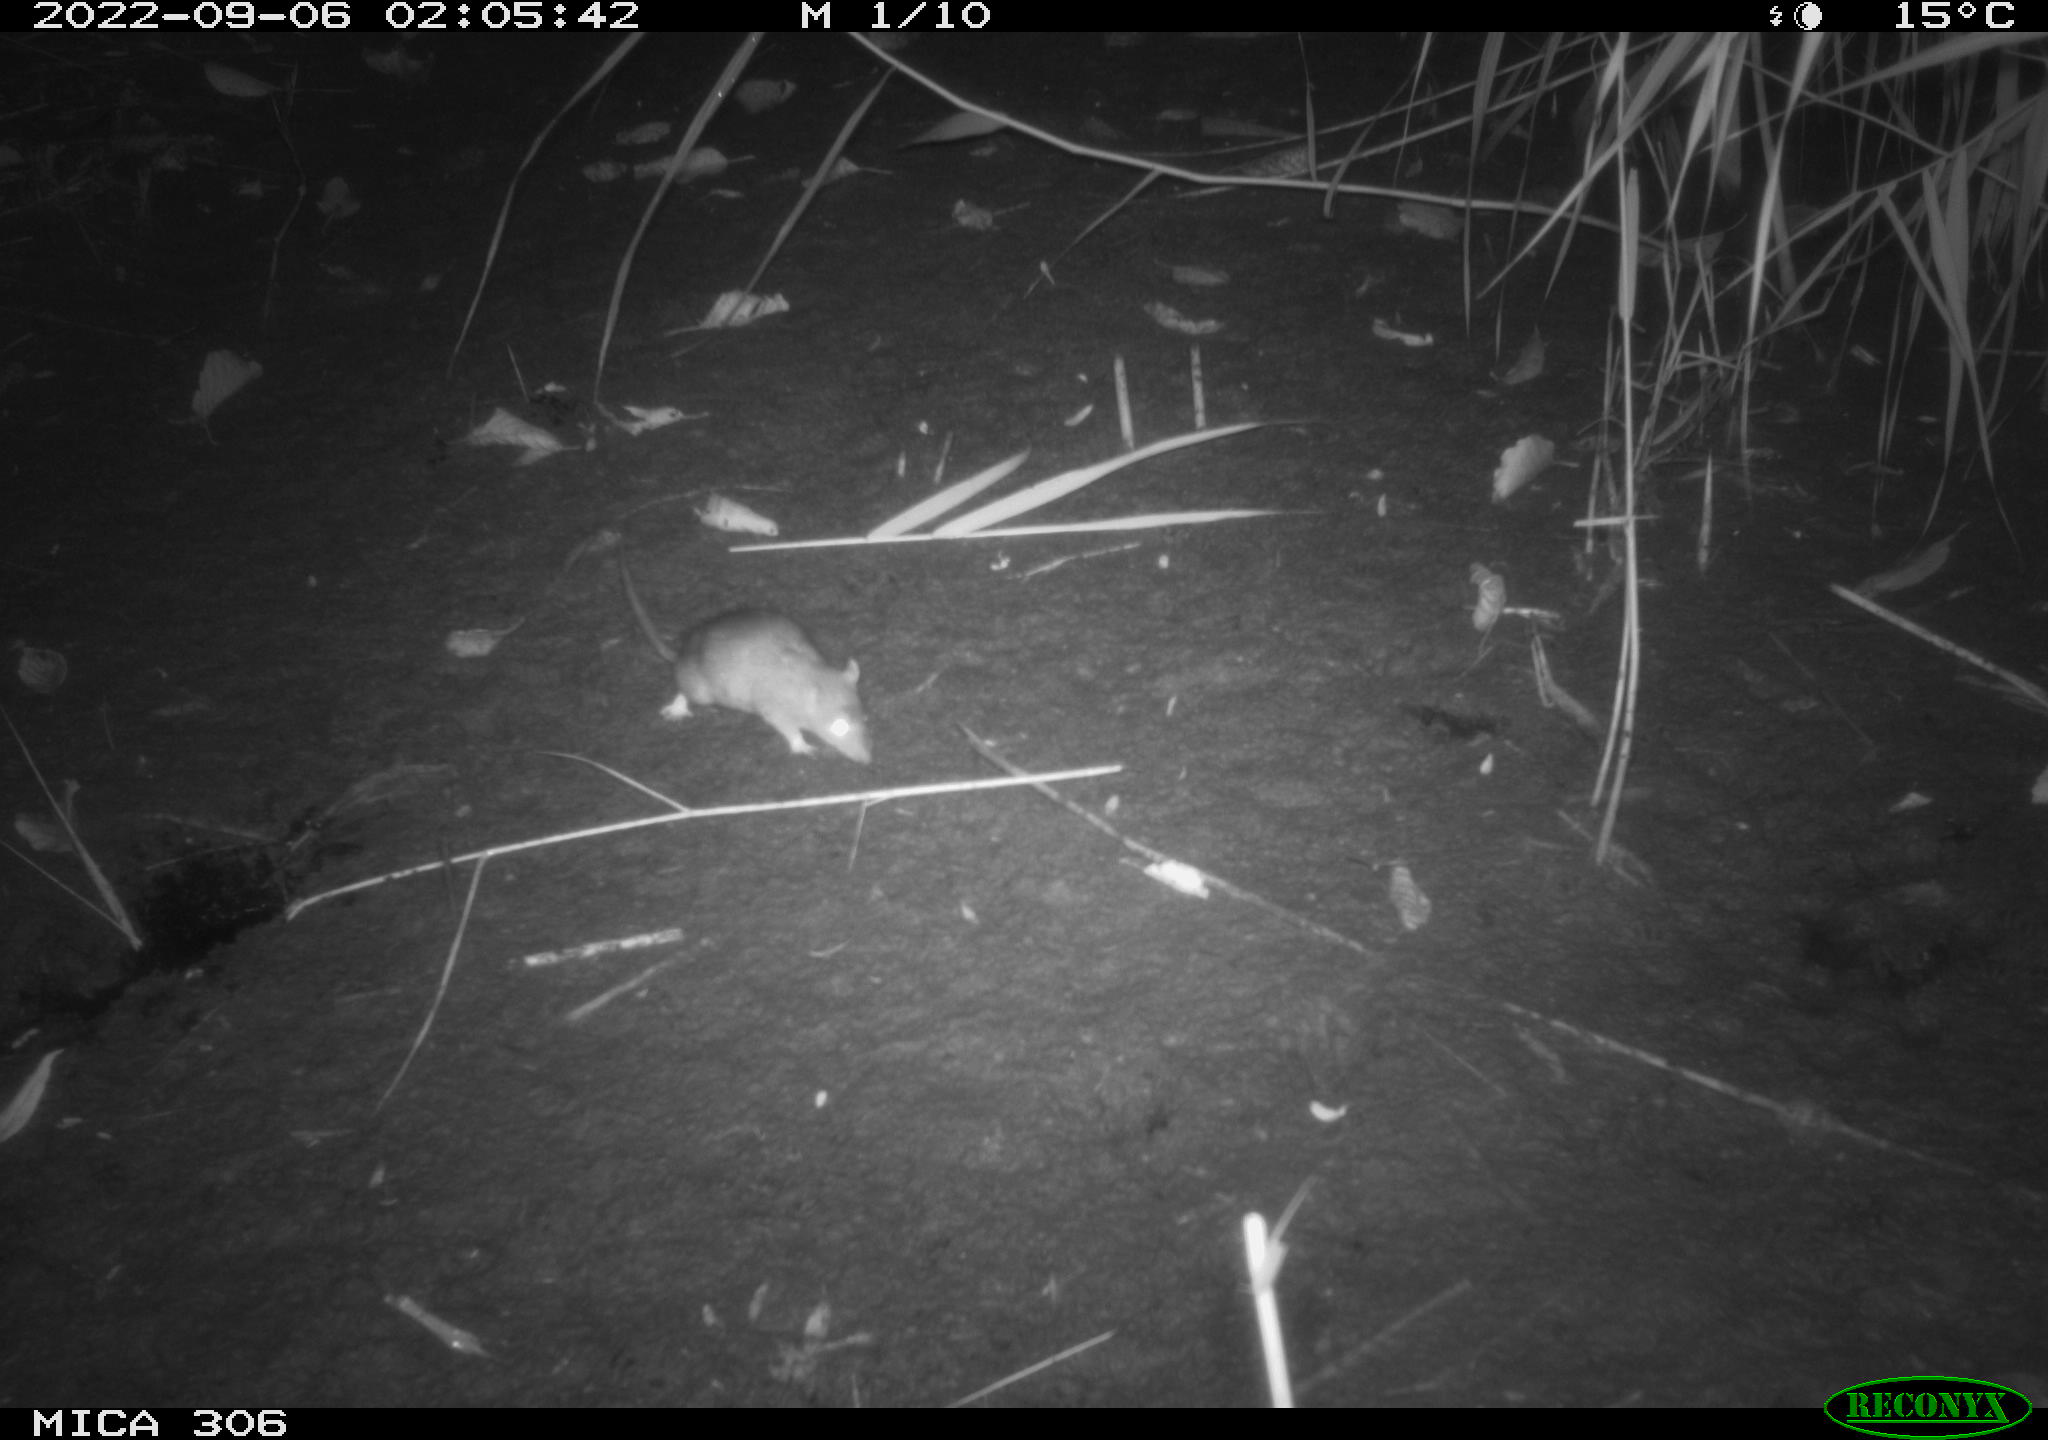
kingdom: Animalia
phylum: Chordata
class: Mammalia
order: Rodentia
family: Muridae
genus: Rattus
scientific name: Rattus norvegicus
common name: Brown rat
